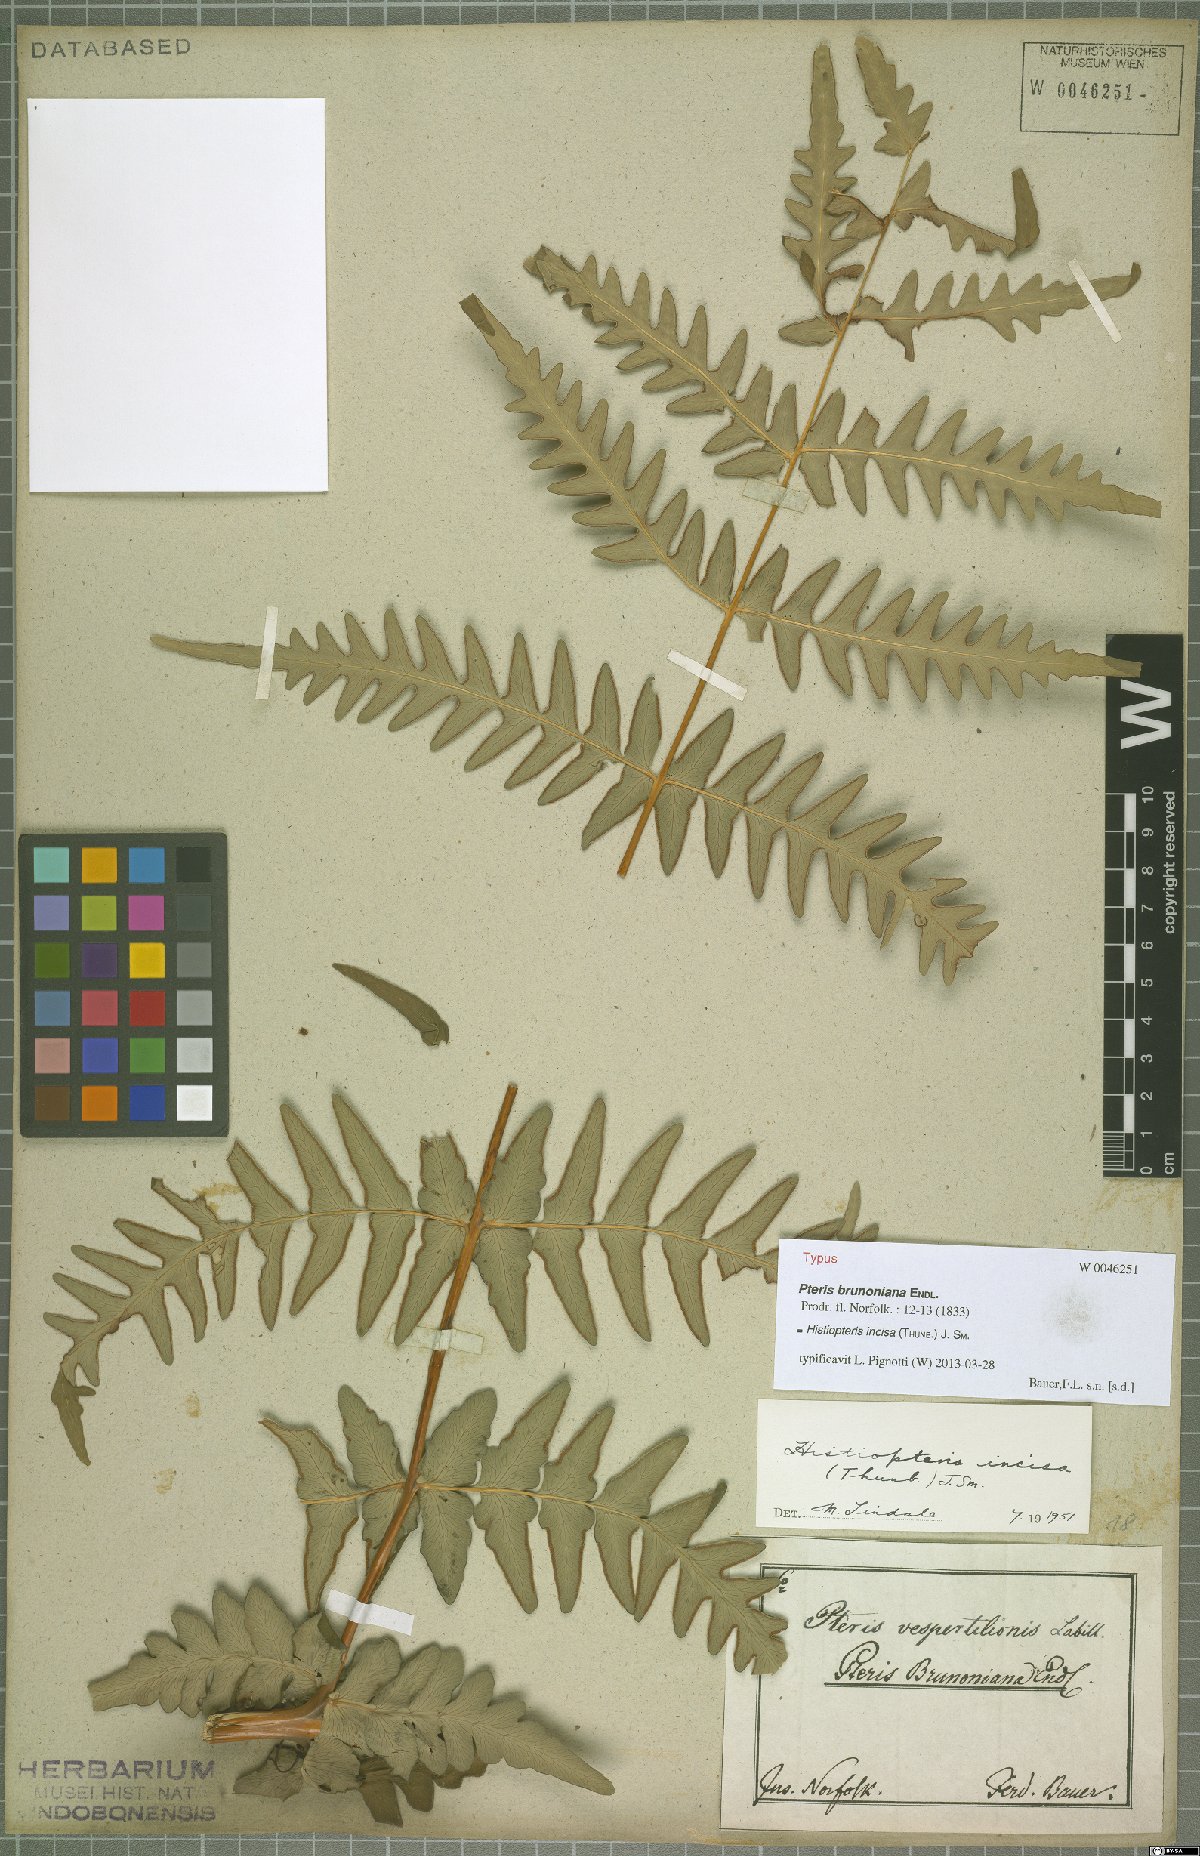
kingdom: Plantae
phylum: Tracheophyta
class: Polypodiopsida
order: Polypodiales
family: Dennstaedtiaceae
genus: Histiopteris
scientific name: Histiopteris incisa
